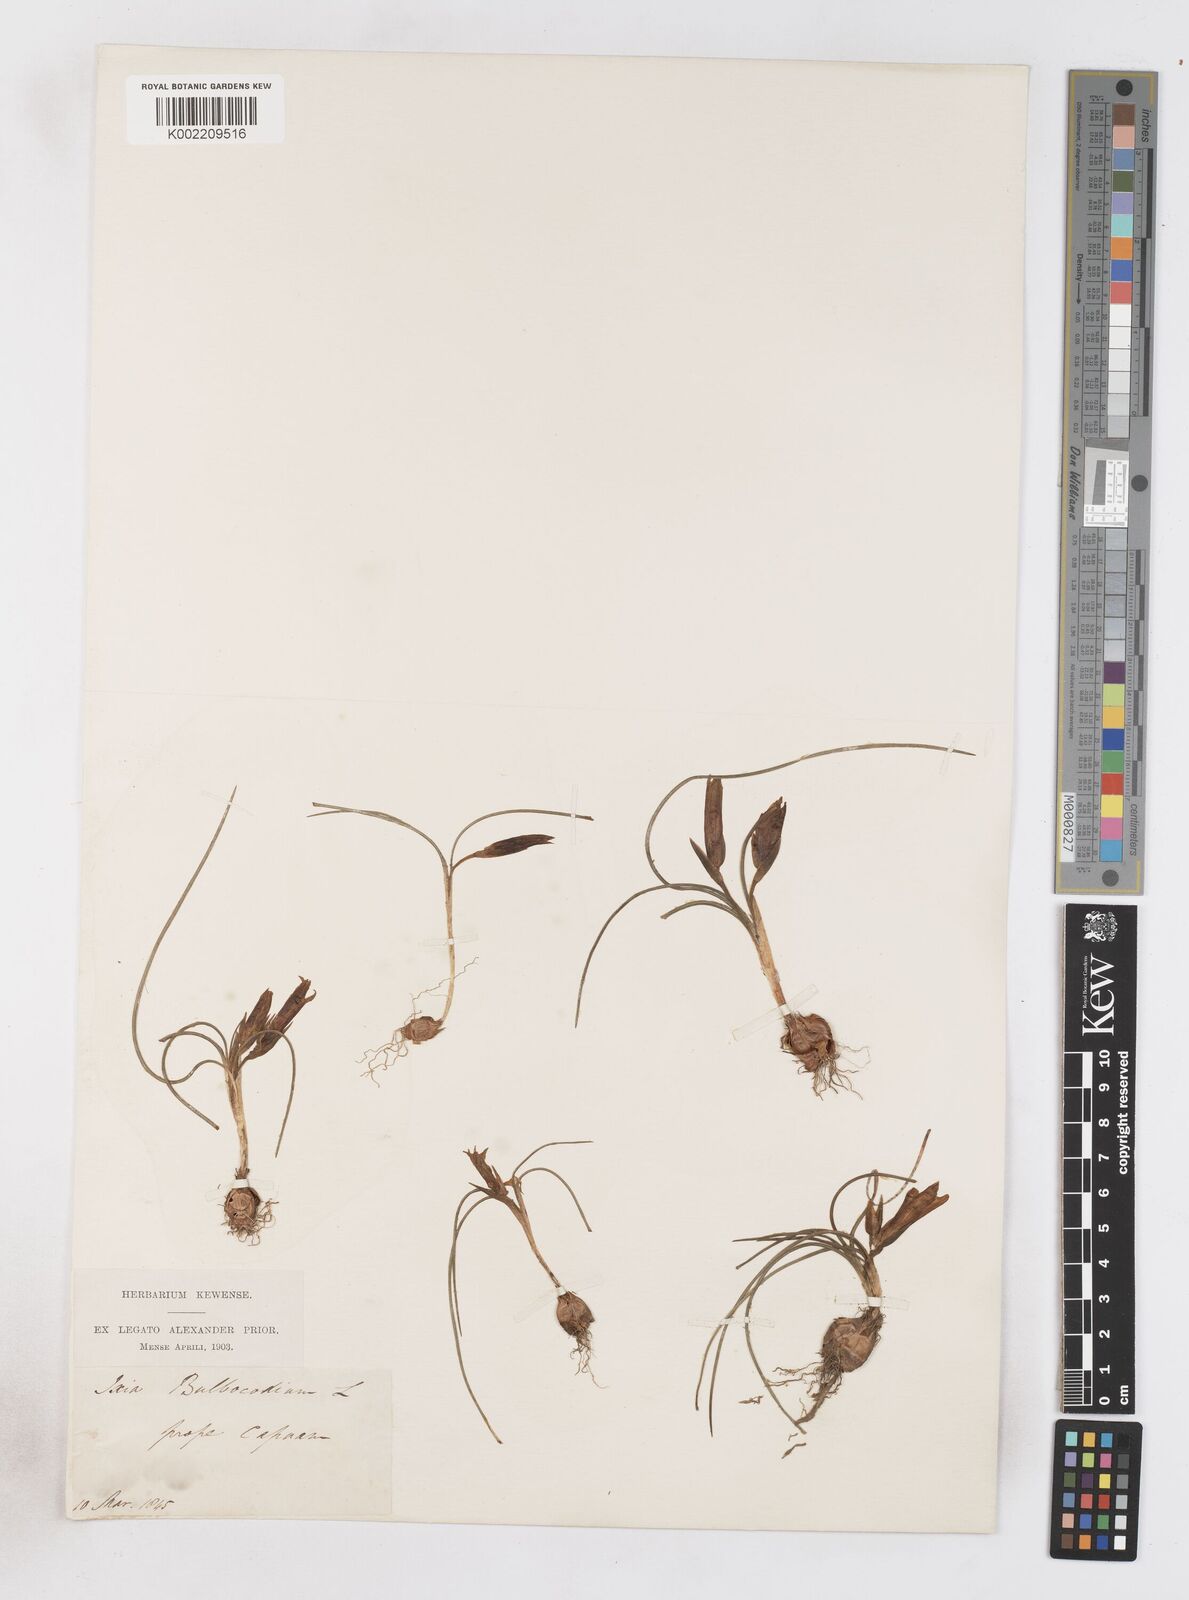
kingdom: Plantae
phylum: Tracheophyta
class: Liliopsida
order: Asparagales
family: Iridaceae
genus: Romulea
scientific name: Romulea bulbocodium
